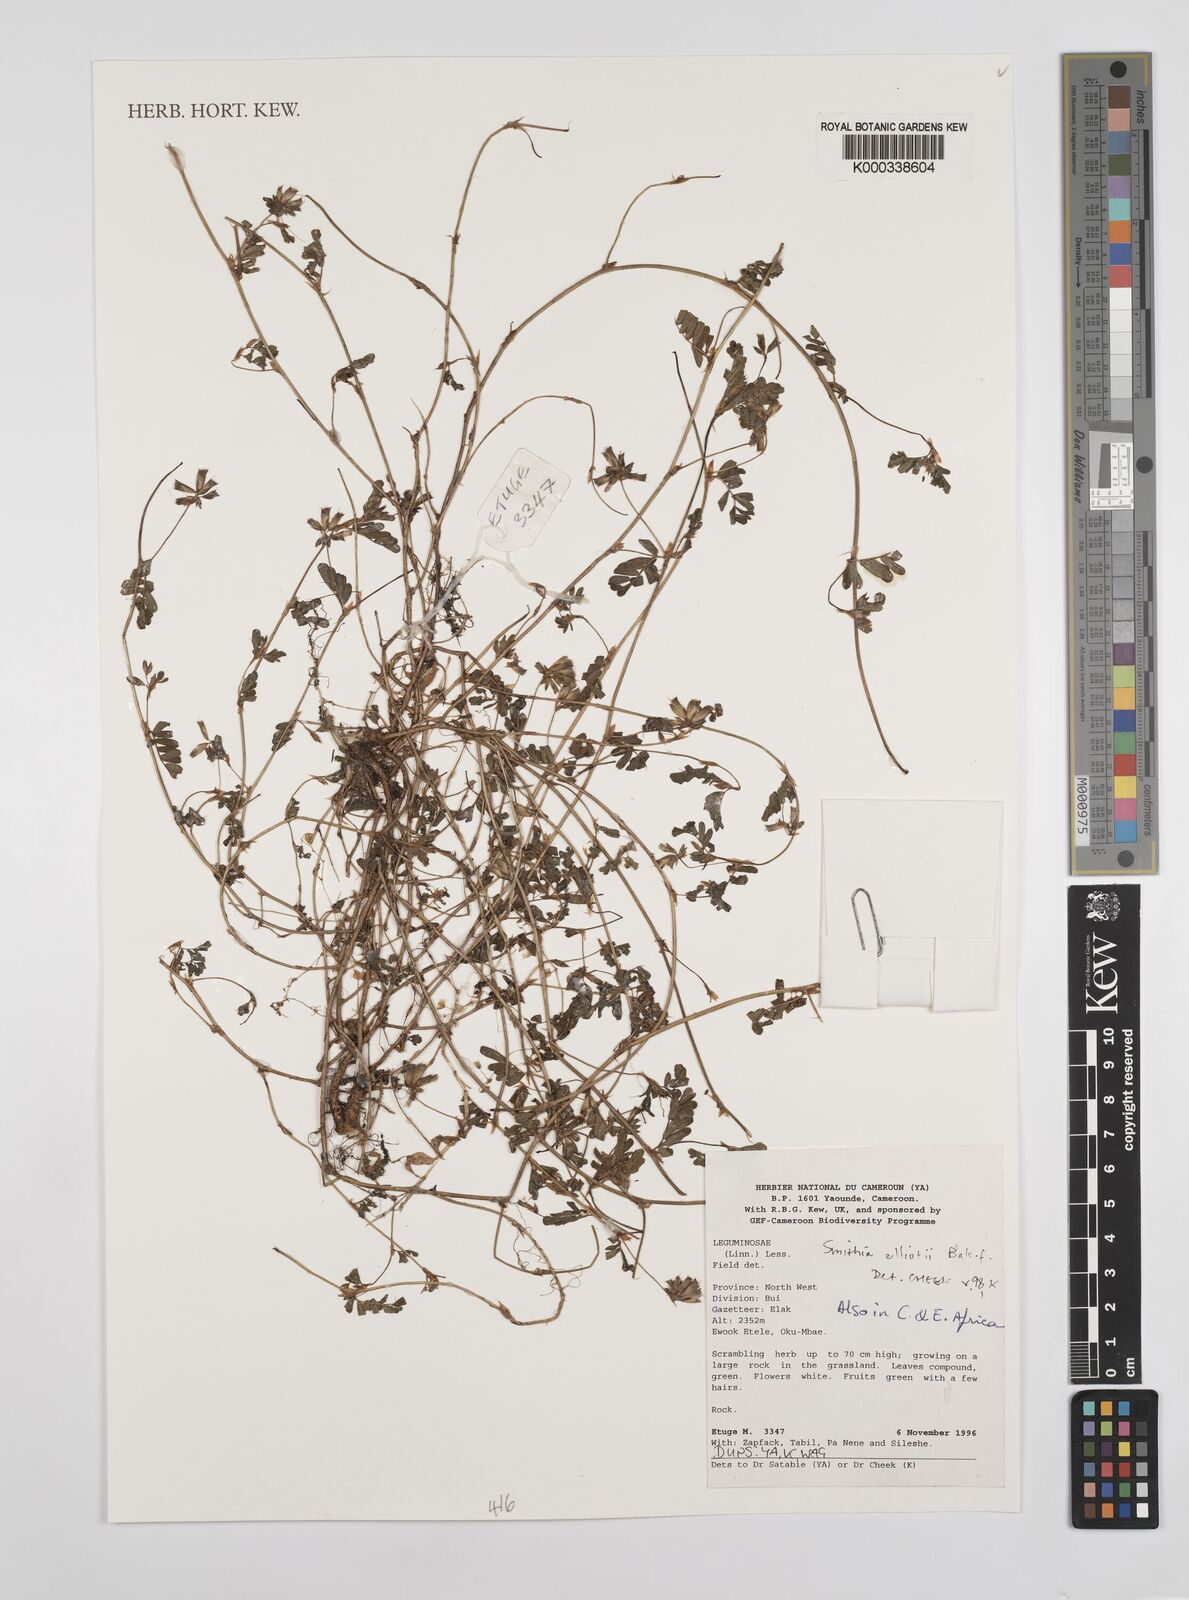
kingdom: Plantae
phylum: Tracheophyta
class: Magnoliopsida
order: Fabales
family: Fabaceae
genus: Smithia
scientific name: Smithia elliotii
